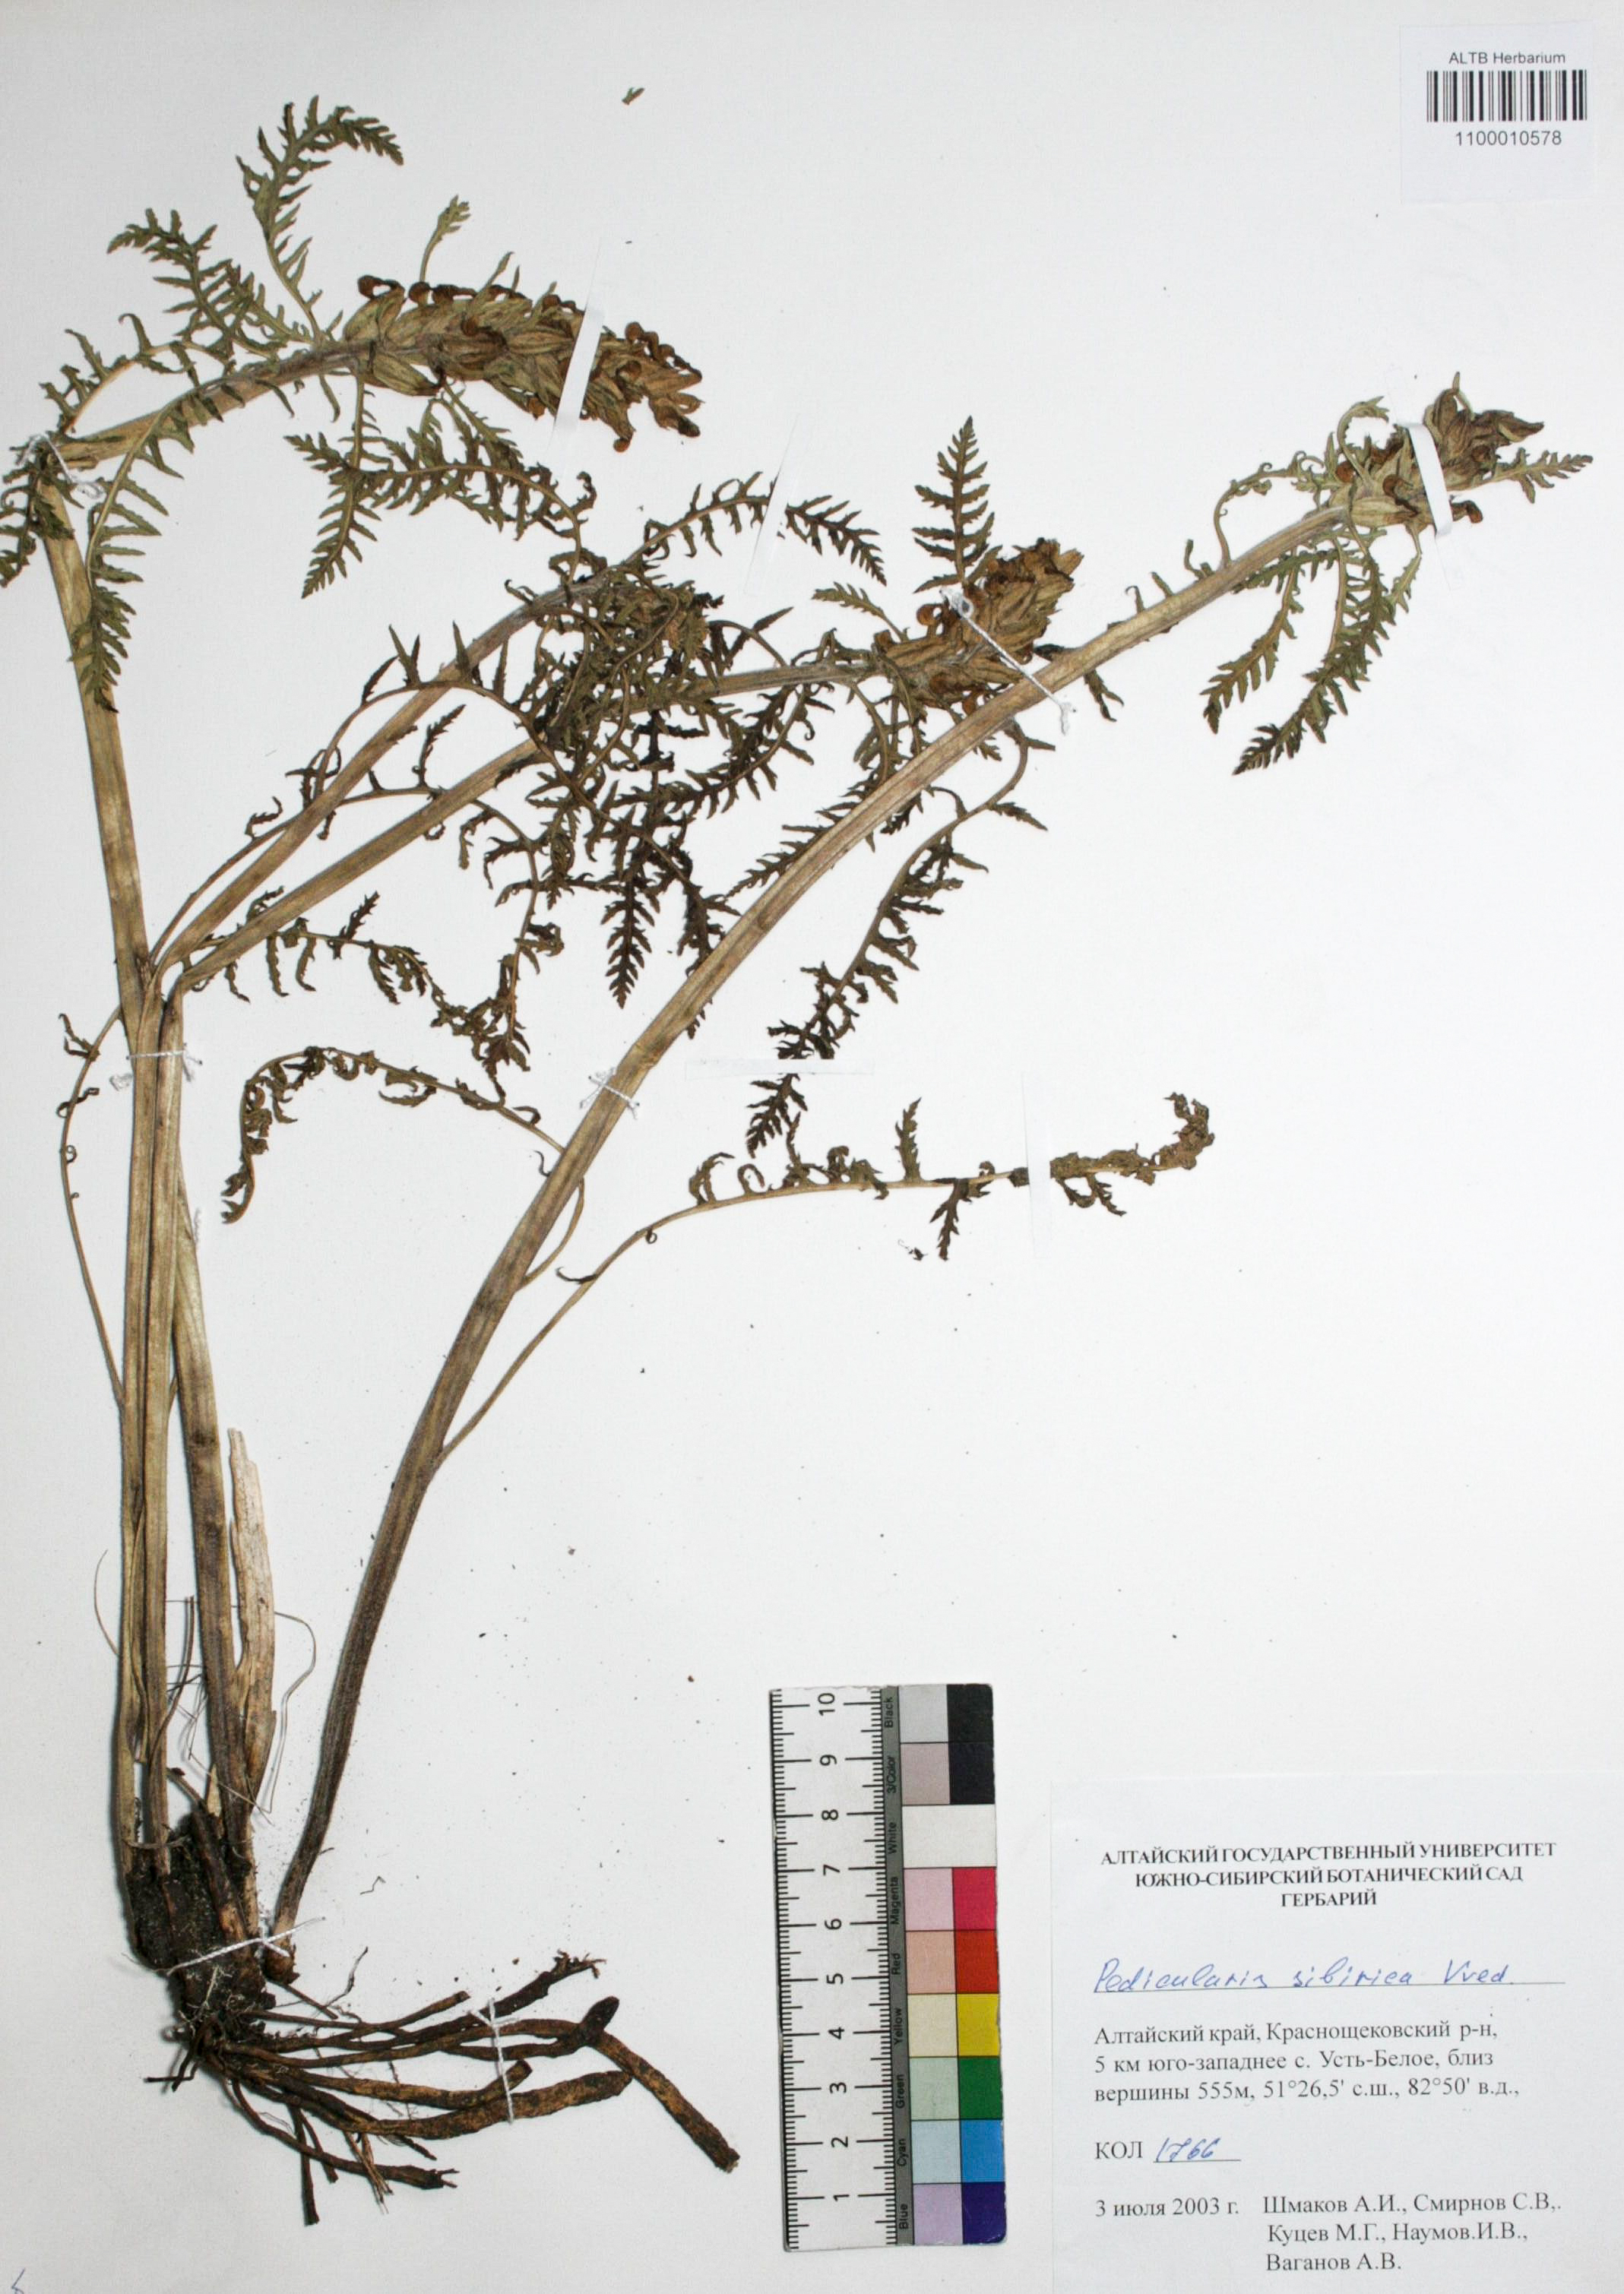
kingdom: Plantae
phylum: Tracheophyta
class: Magnoliopsida
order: Lamiales
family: Orobanchaceae
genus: Pedicularis
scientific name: Pedicularis sibirica
